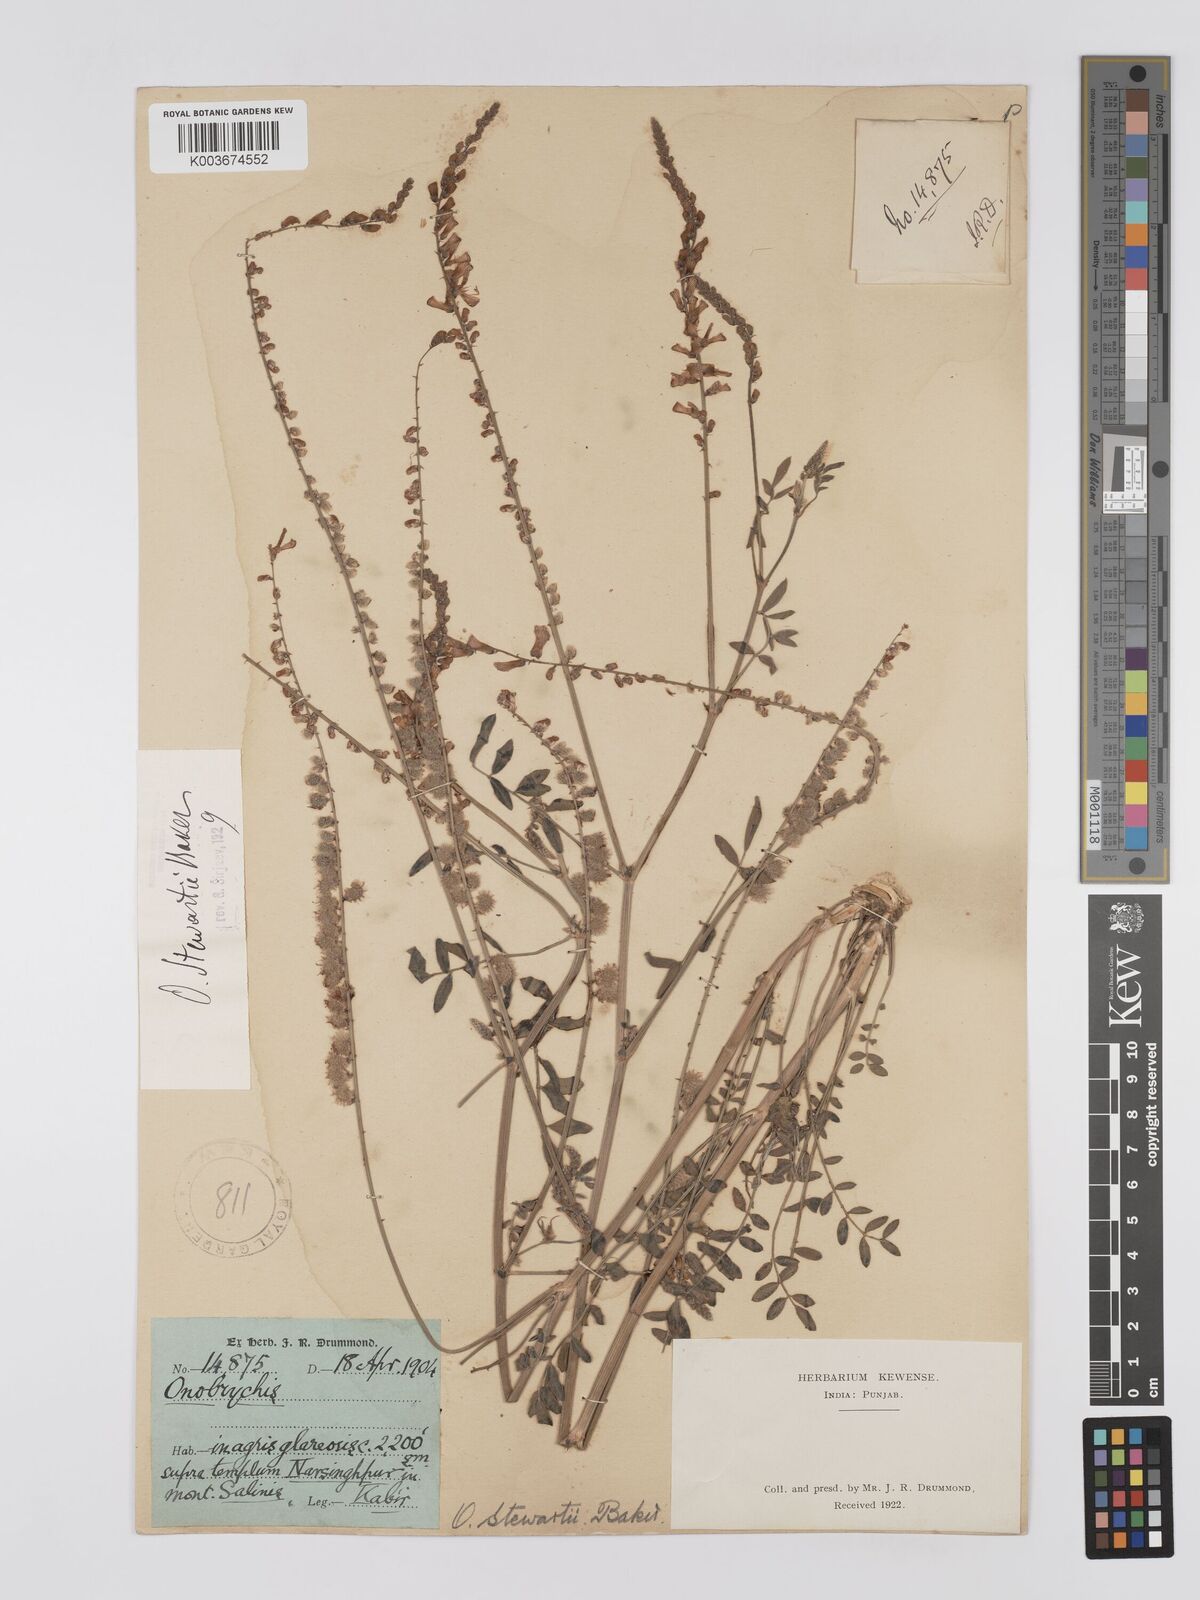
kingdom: Plantae
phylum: Tracheophyta
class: Magnoliopsida
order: Fabales
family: Fabaceae
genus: Onobrychis
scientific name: Onobrychis stewartii
